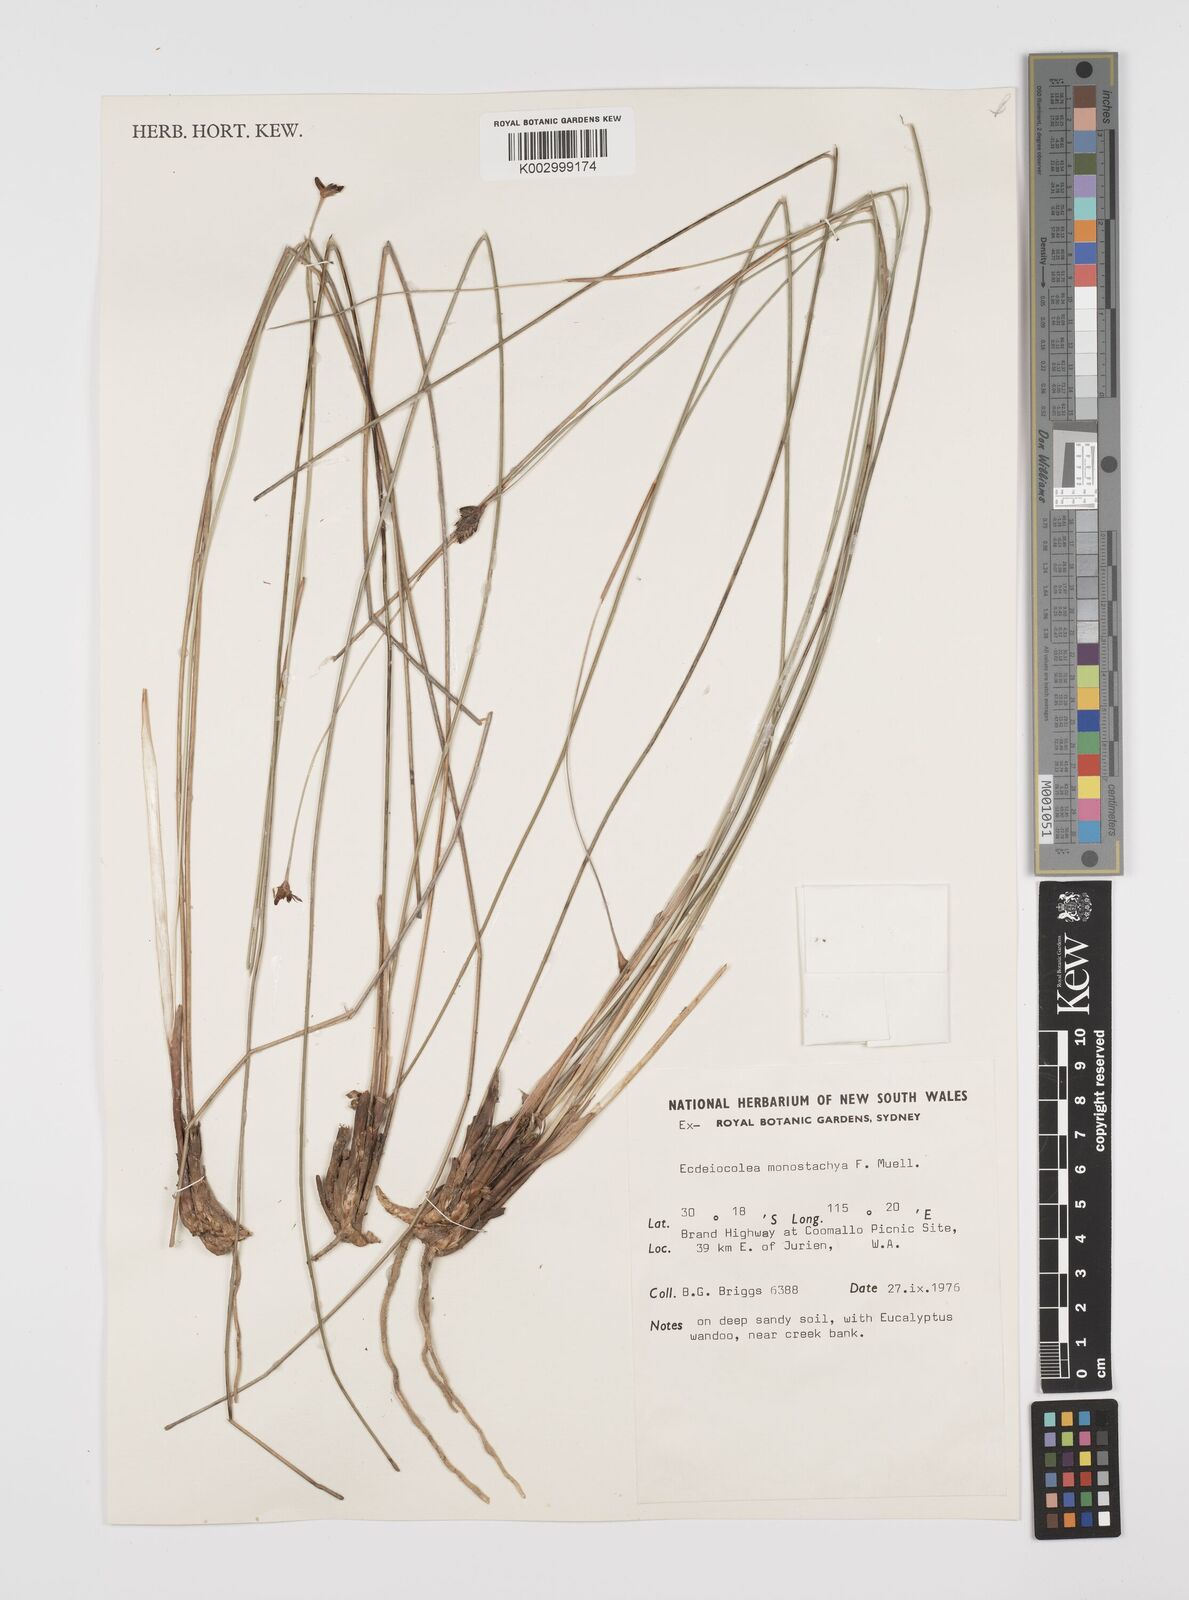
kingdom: Plantae
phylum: Tracheophyta
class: Liliopsida
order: Poales
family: Ecdeiocoleaceae
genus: Ecdeiocolea
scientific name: Ecdeiocolea monostachya
